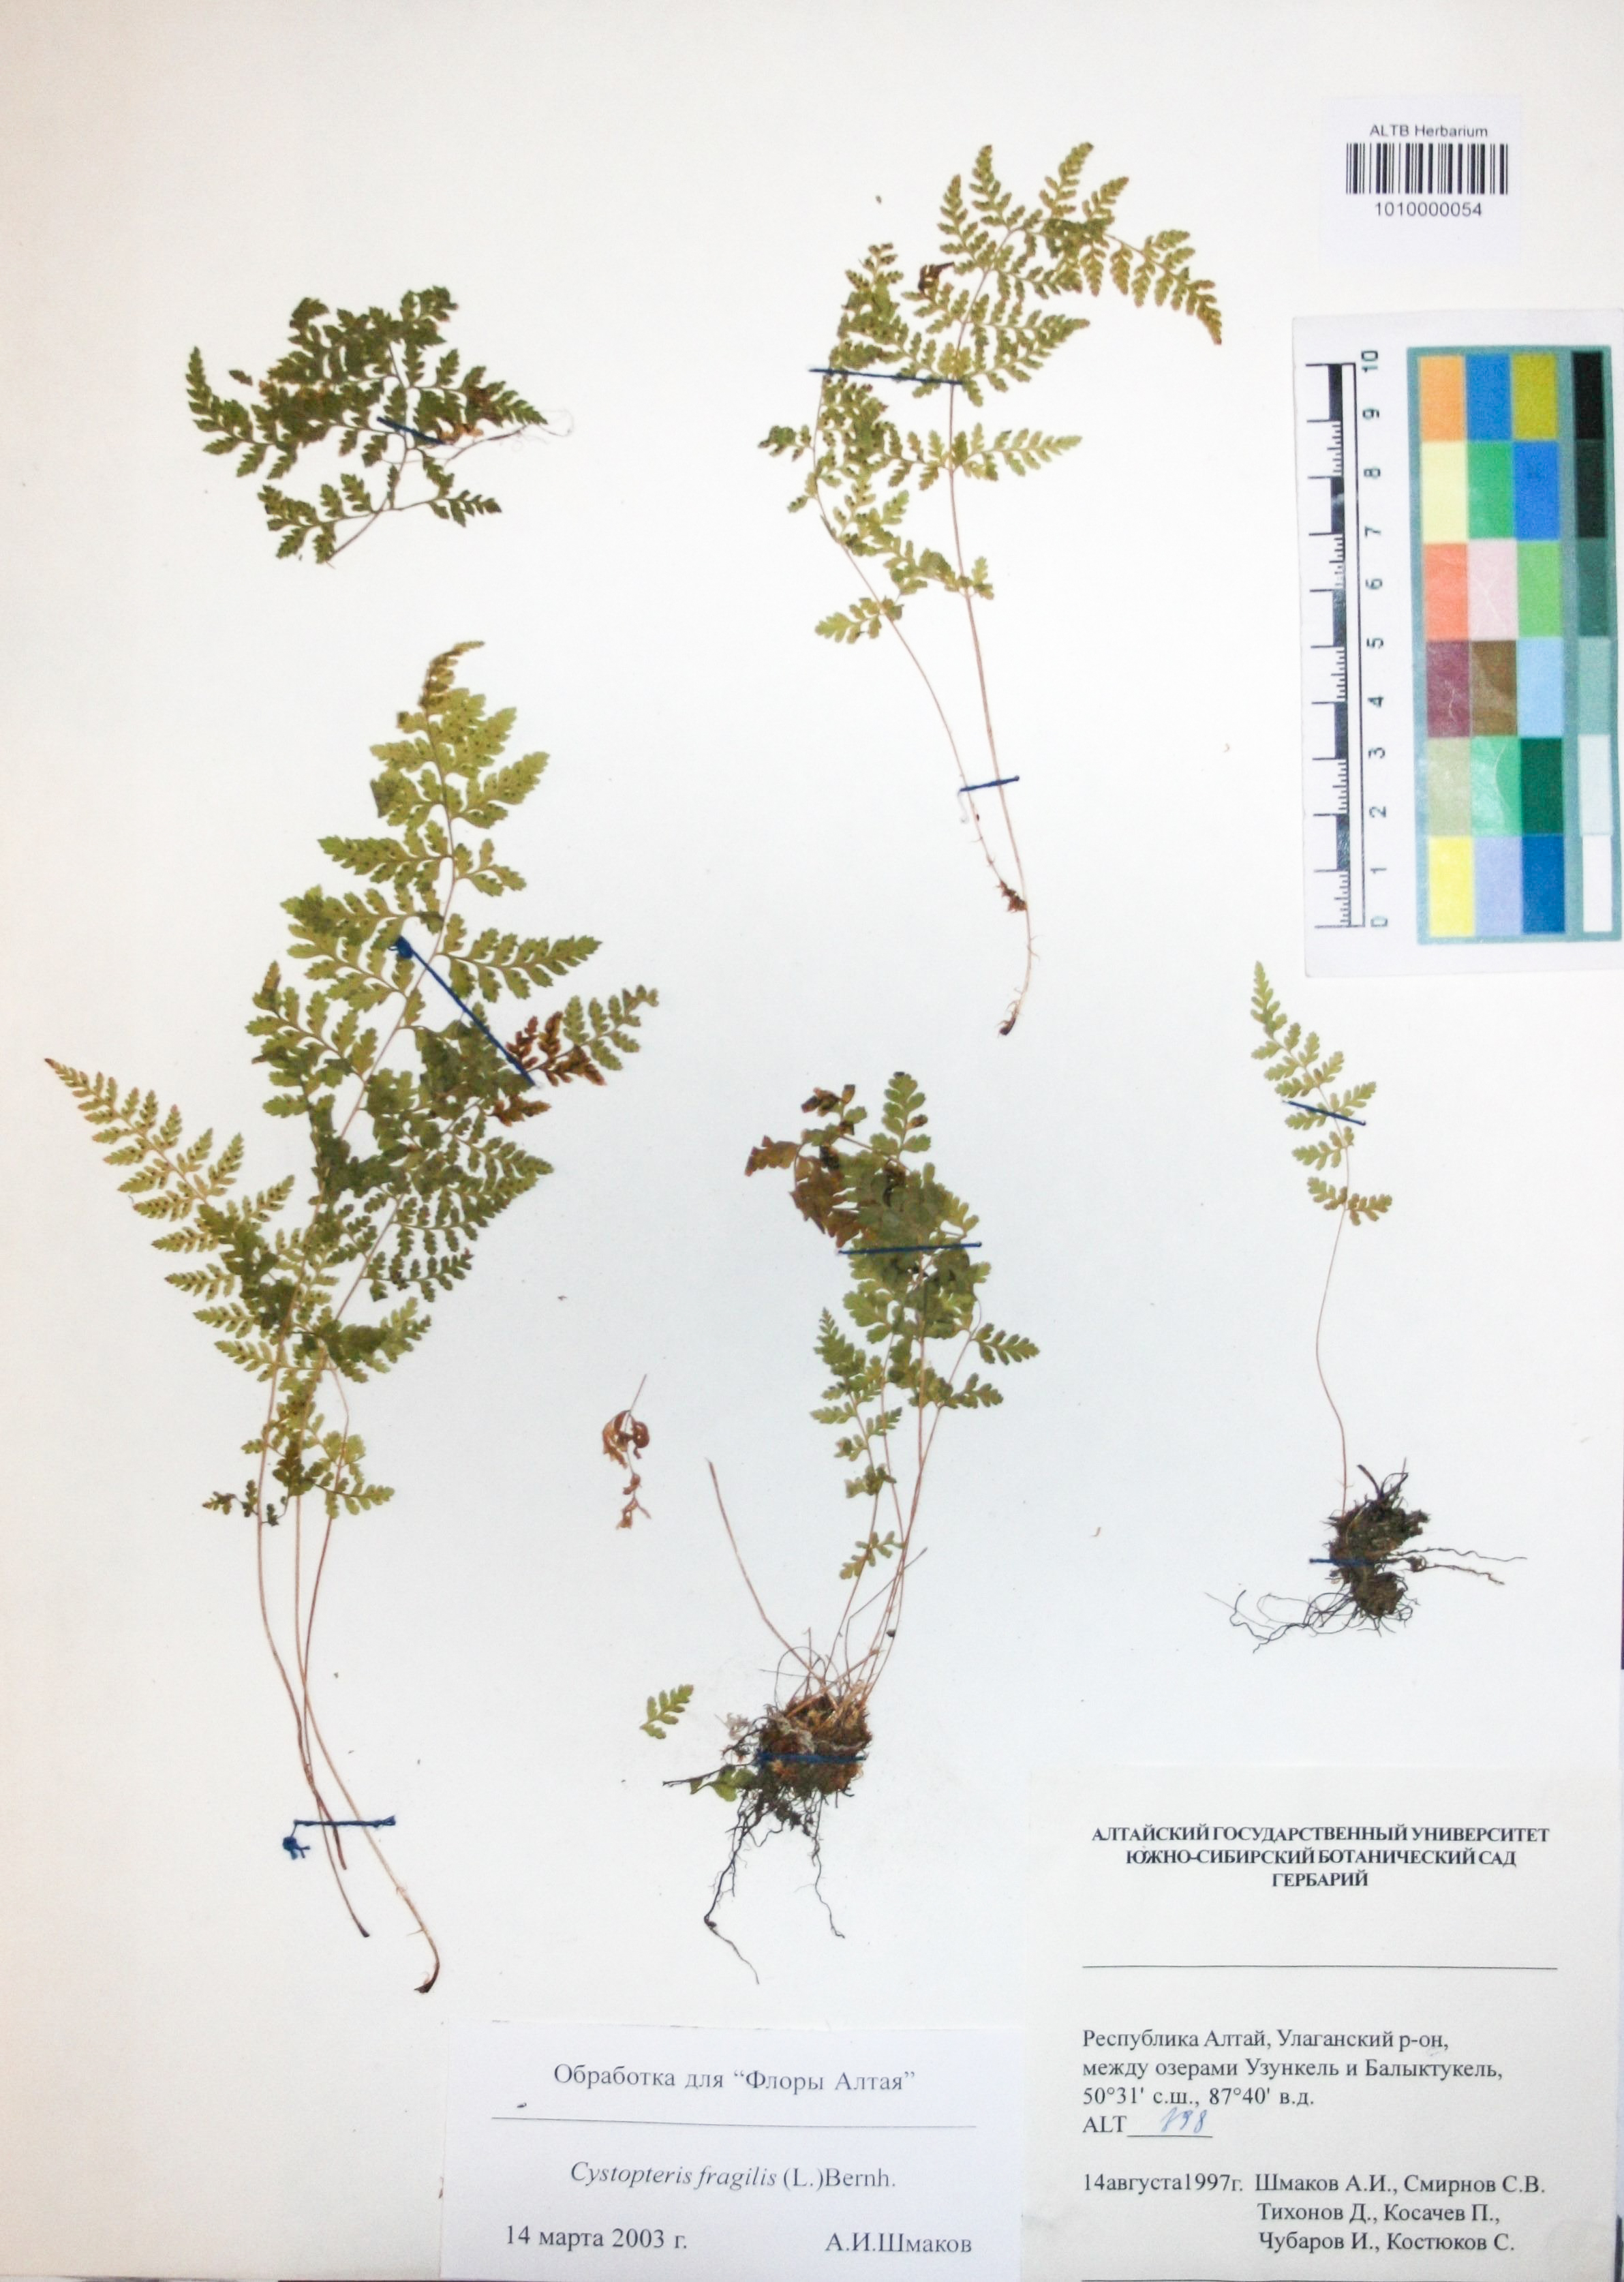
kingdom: Plantae
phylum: Tracheophyta
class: Polypodiopsida
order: Polypodiales
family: Cystopteridaceae
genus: Cystopteris
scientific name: Cystopteris fragilis
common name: Brittle bladder fern
